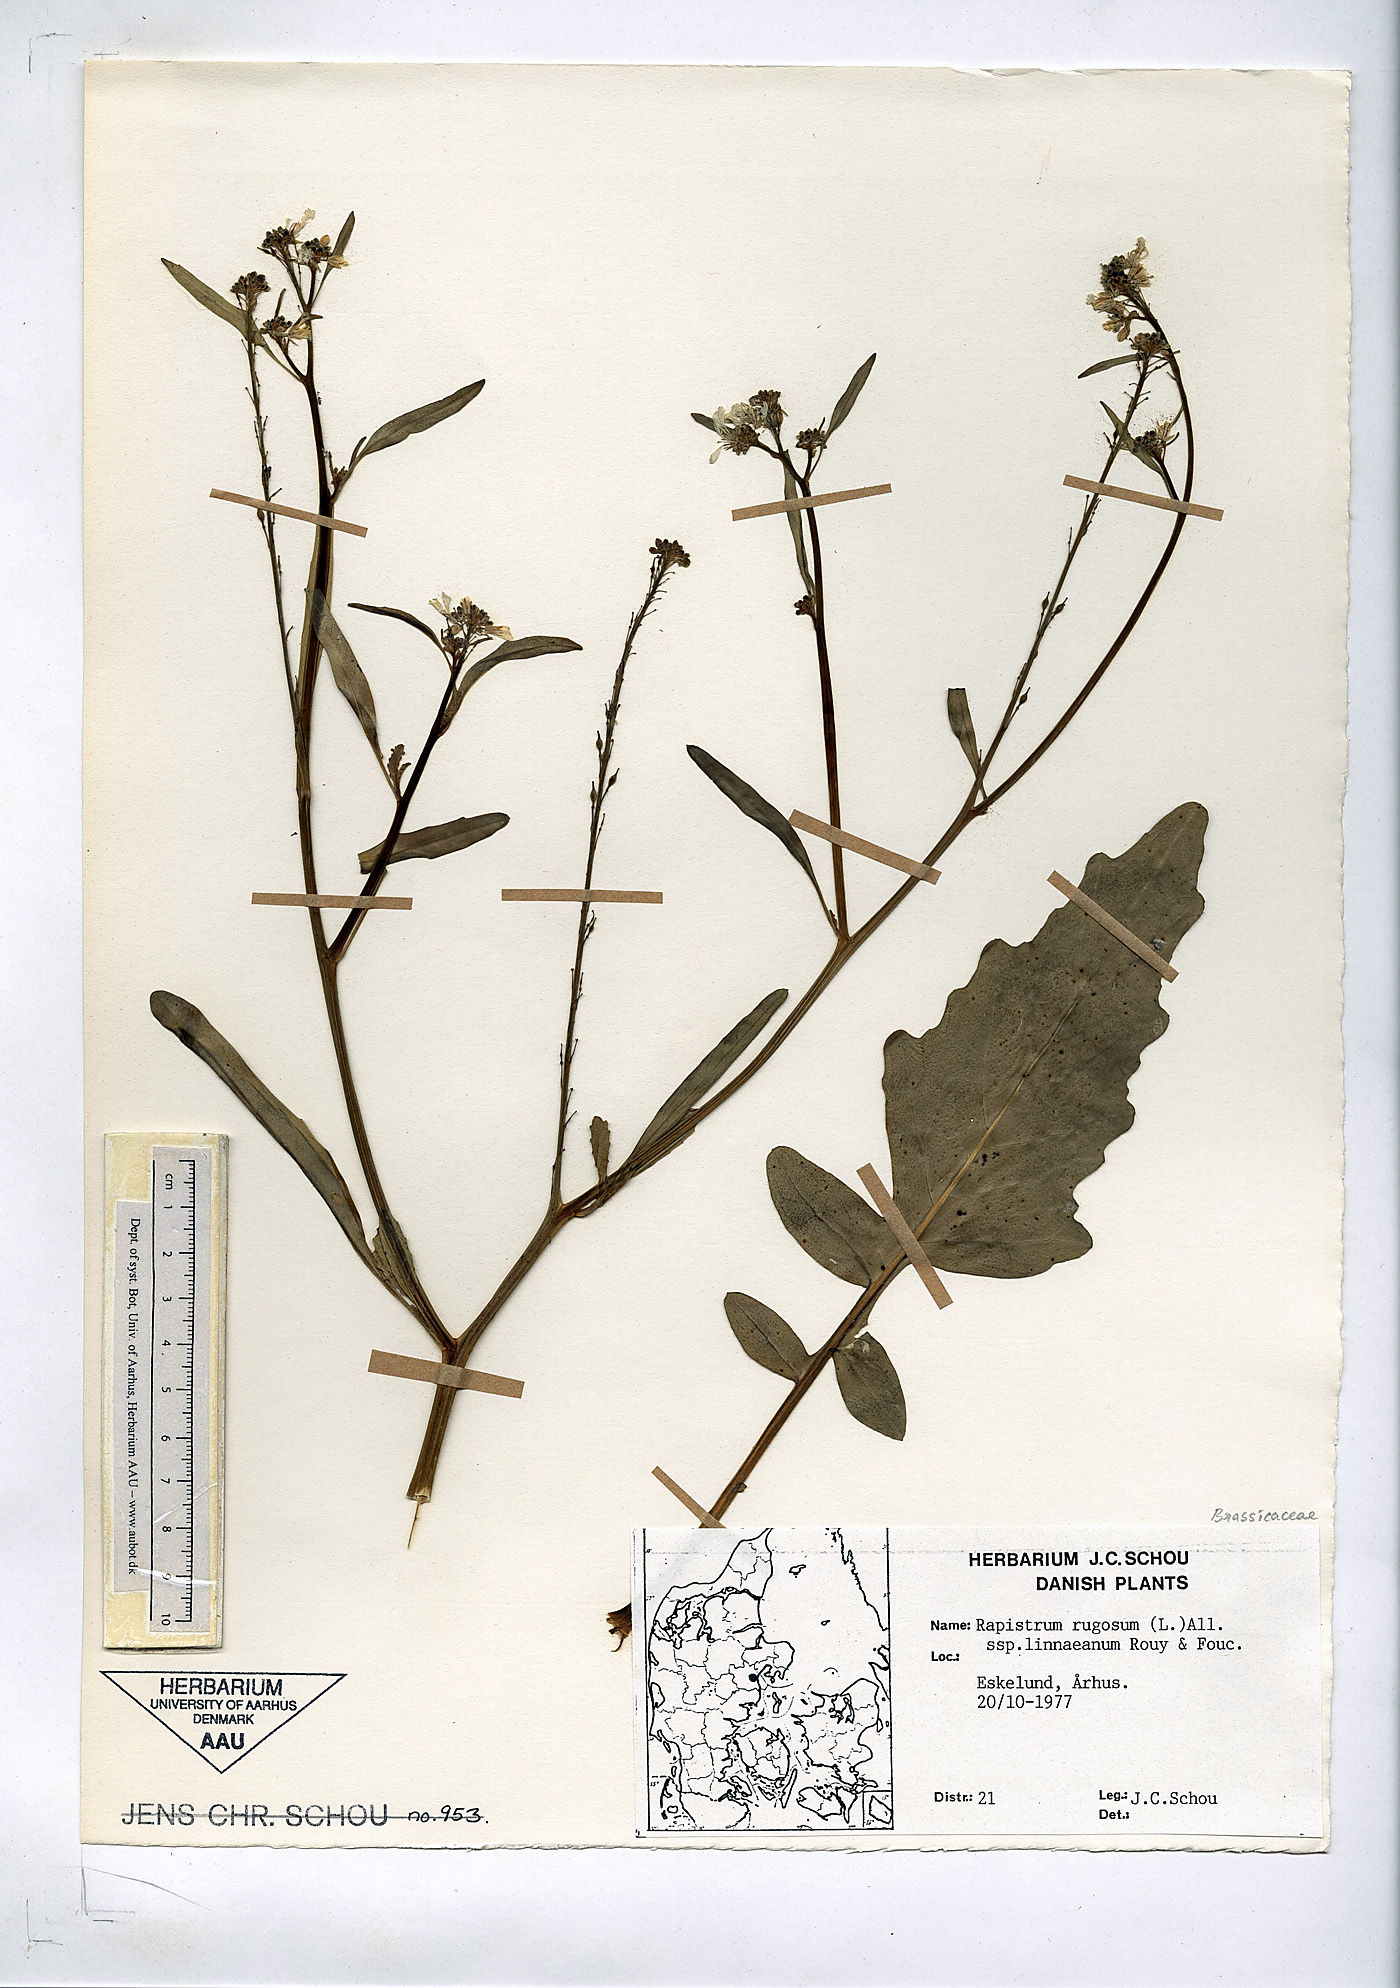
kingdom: Plantae
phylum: Tracheophyta
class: Magnoliopsida
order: Brassicales
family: Brassicaceae
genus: Rapistrum
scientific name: Rapistrum rugosum
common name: Annual bastardcabbage
